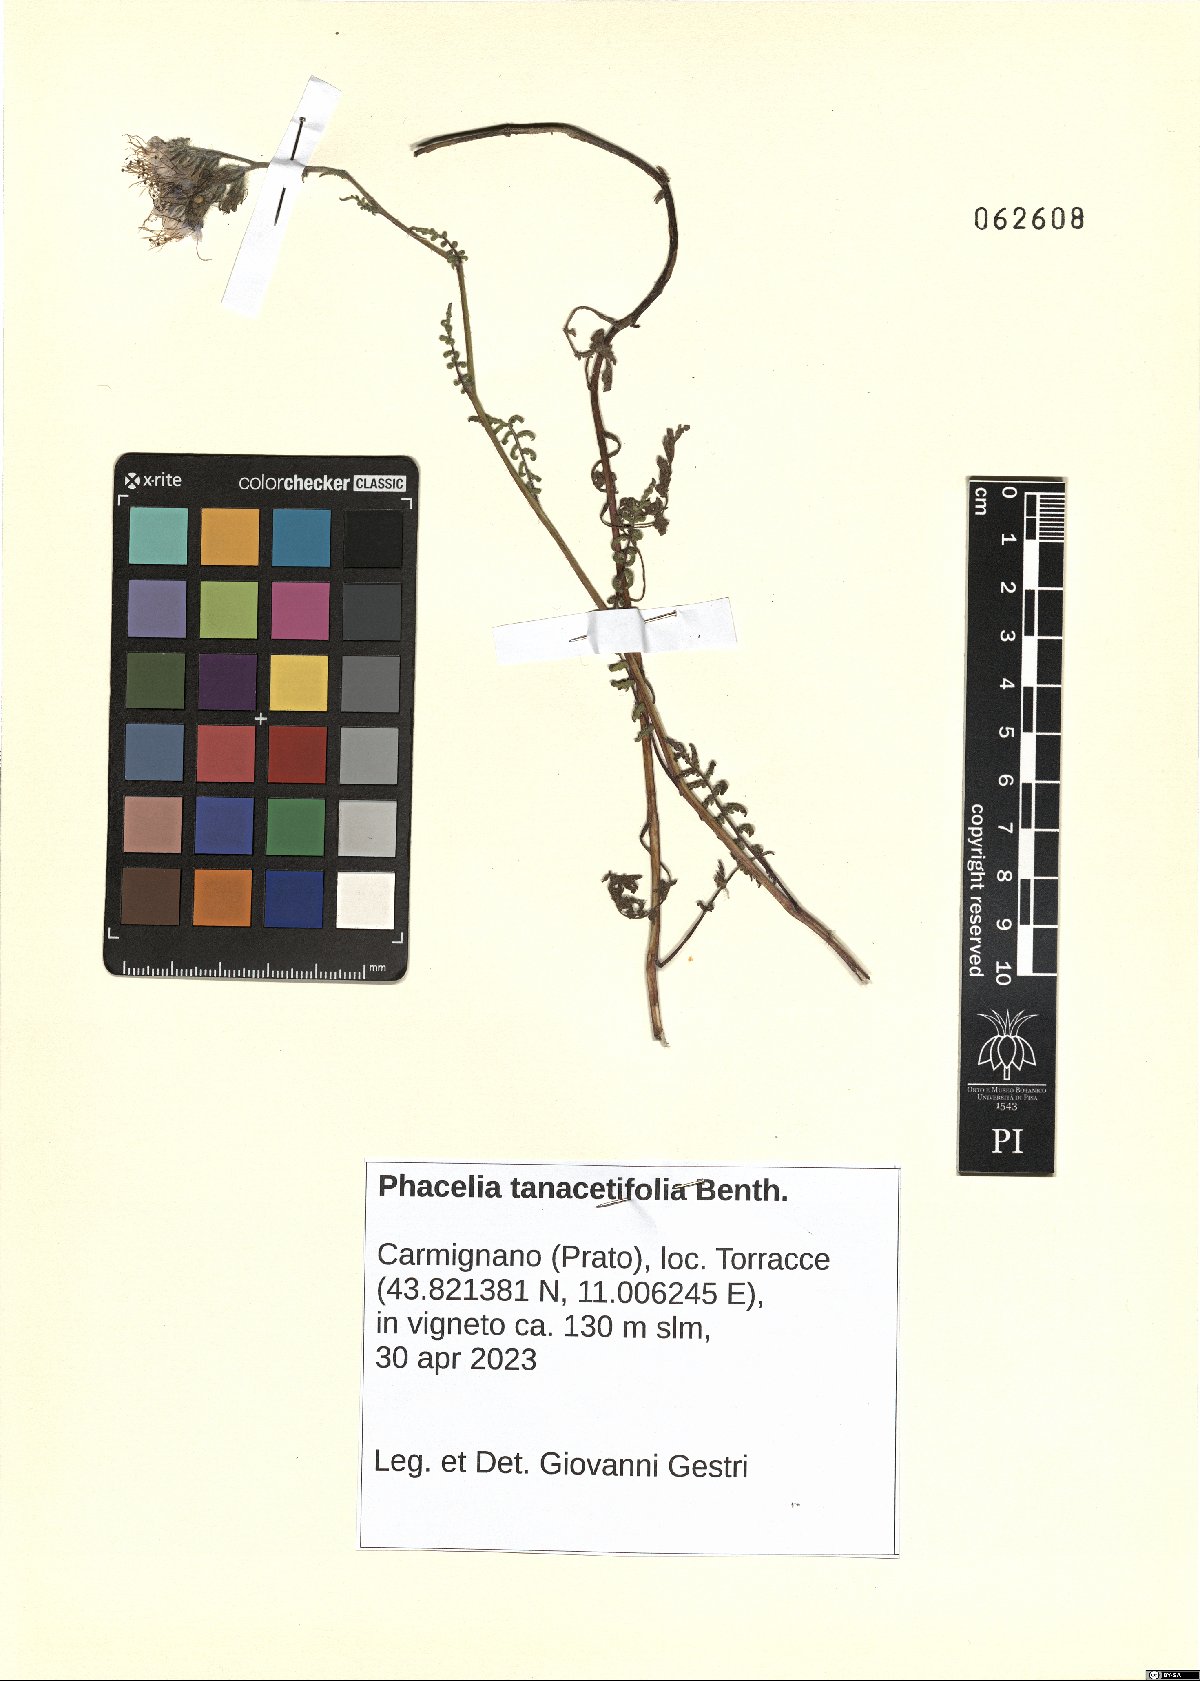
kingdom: Plantae
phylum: Tracheophyta
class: Magnoliopsida
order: Boraginales
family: Hydrophyllaceae
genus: Phacelia
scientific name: Phacelia tanacetifolia
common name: Phacelia
